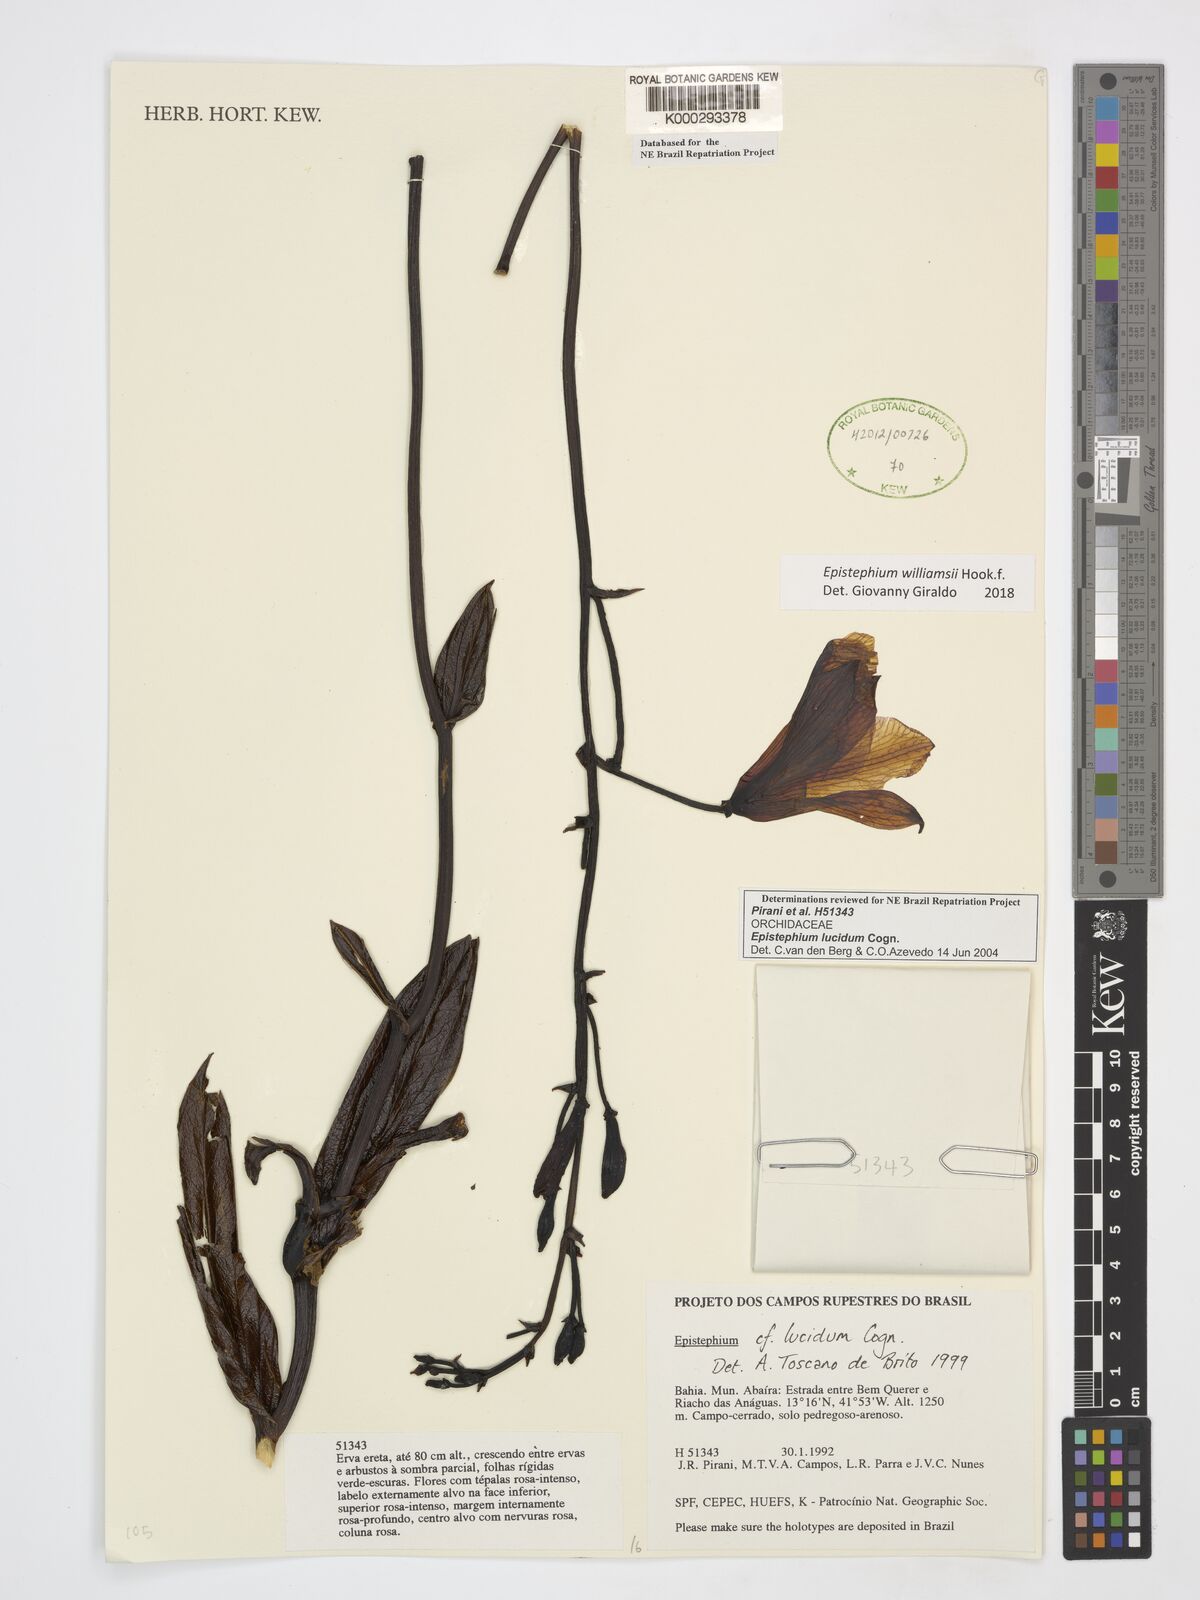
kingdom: Plantae
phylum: Tracheophyta
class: Liliopsida
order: Asparagales
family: Orchidaceae
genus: Epistephium
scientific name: Epistephium williamsii
